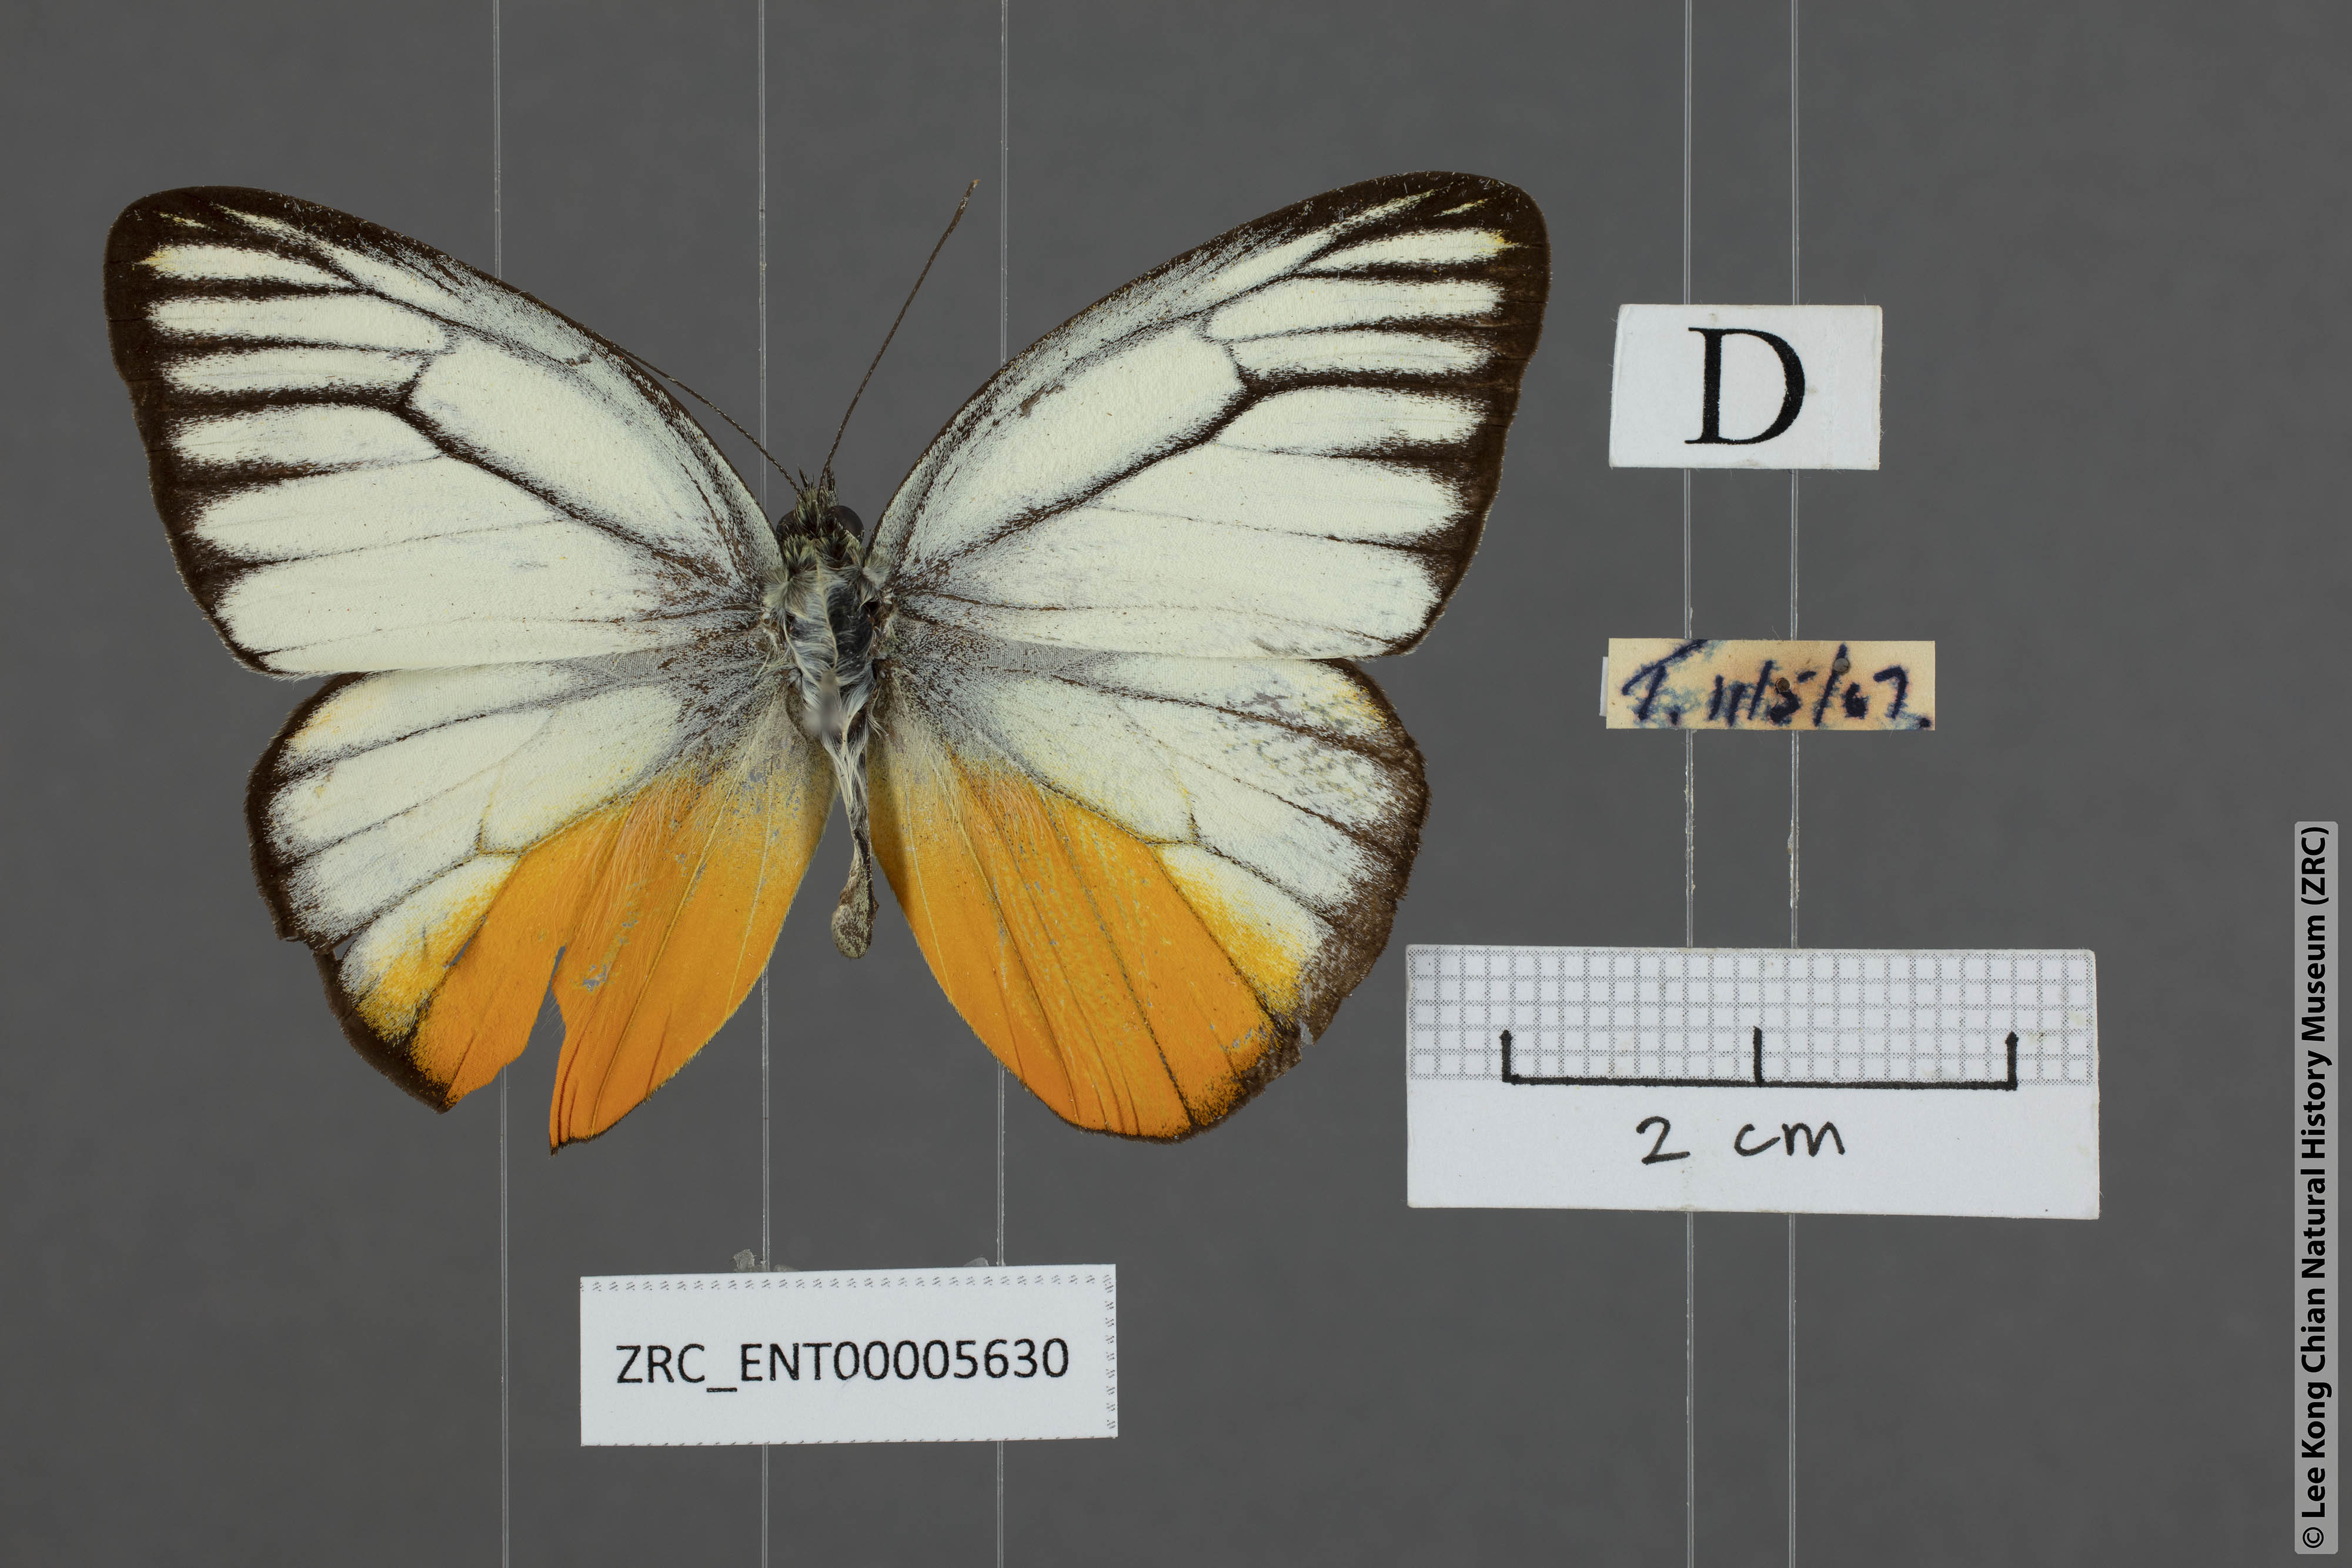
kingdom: Animalia
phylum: Arthropoda
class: Insecta
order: Lepidoptera
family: Pieridae
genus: Cepora
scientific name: Cepora iudith
